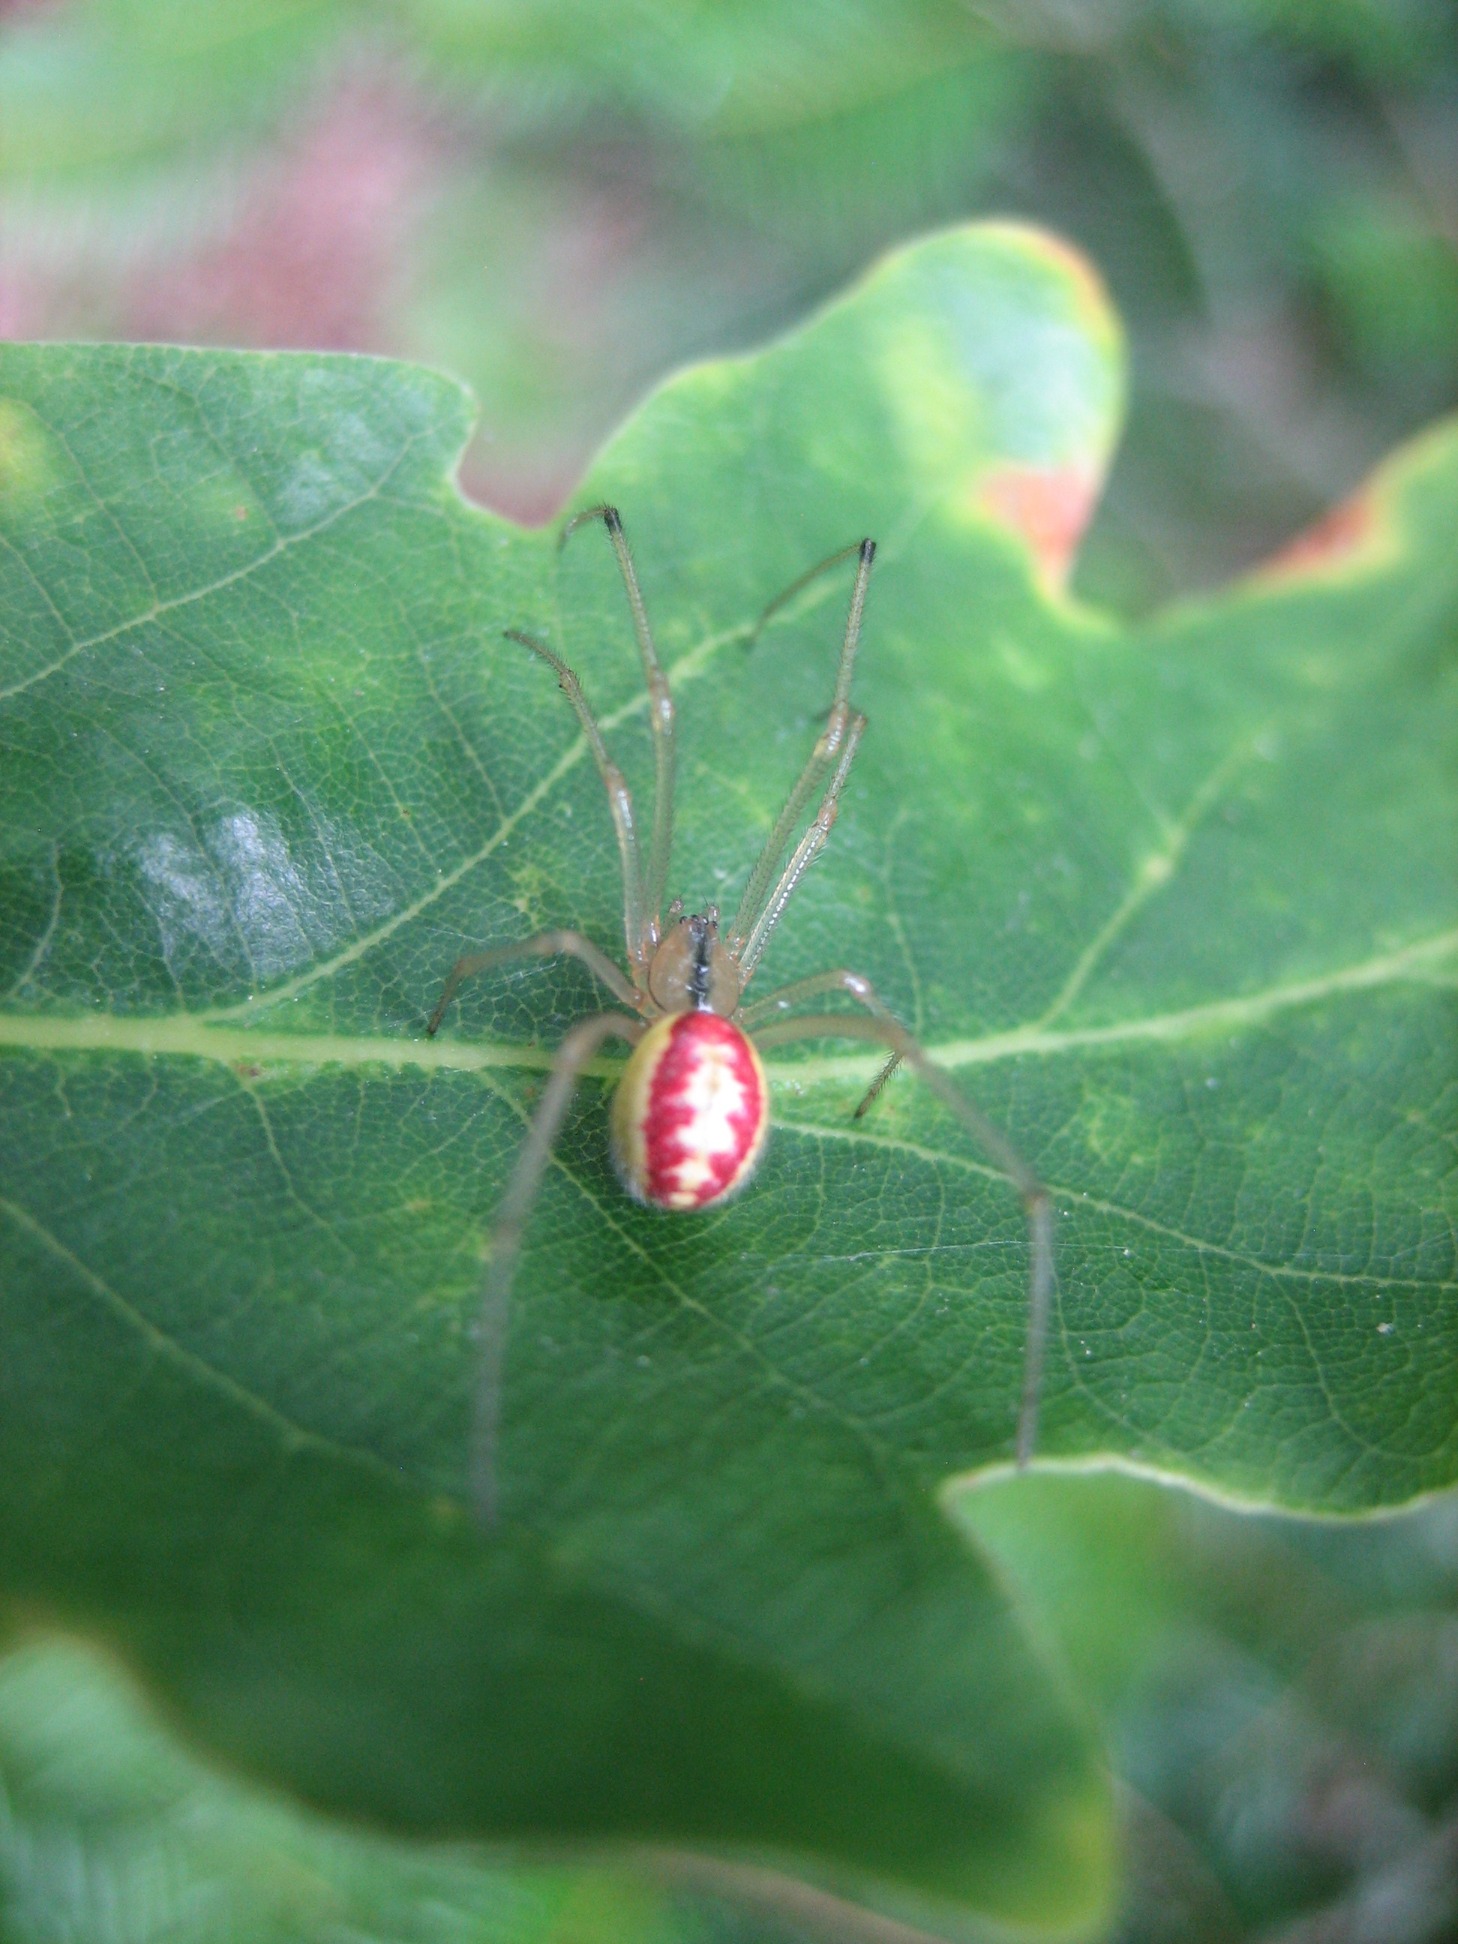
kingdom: Animalia
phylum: Arthropoda
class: Arachnida
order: Araneae
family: Theridiidae
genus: Enoplognatha
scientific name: Enoplognatha
